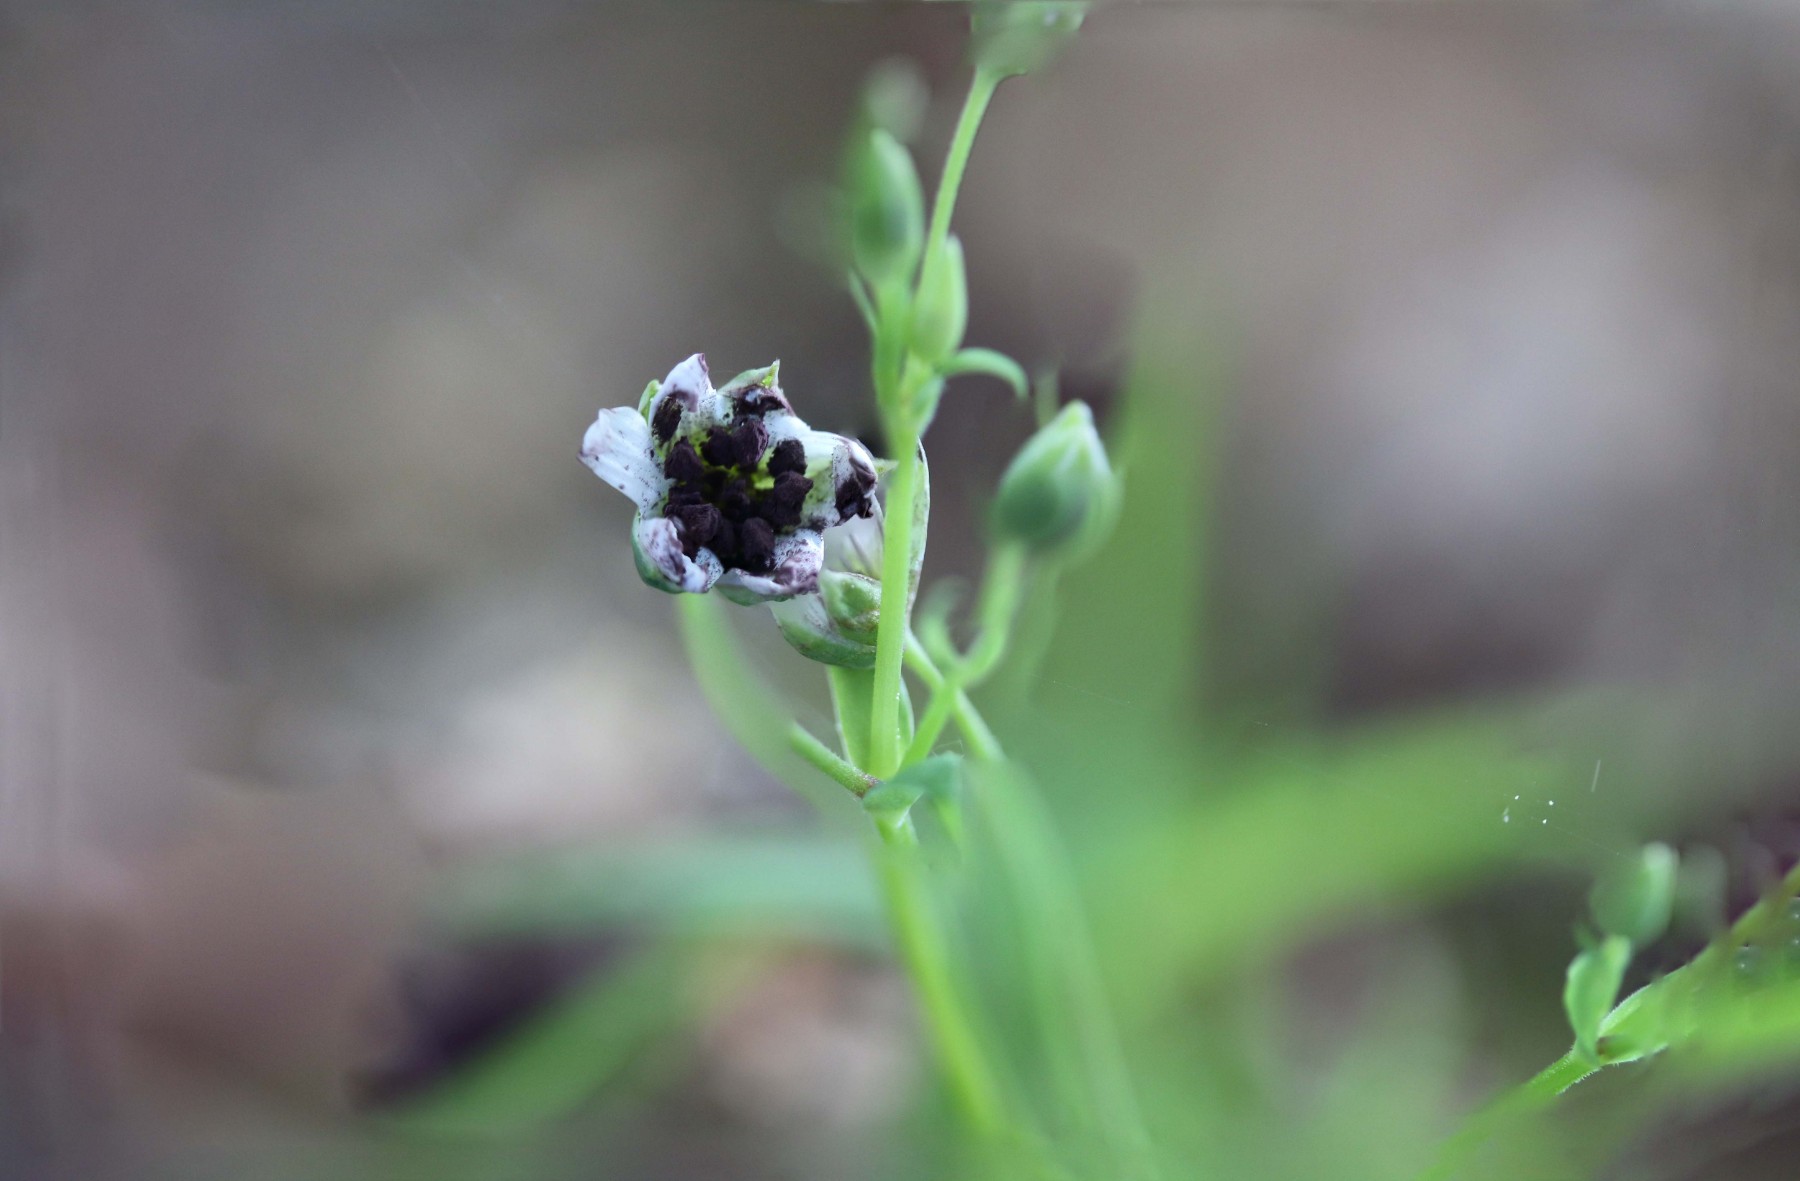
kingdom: Fungi
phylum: Basidiomycota
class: Microbotryomycetes
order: Microbotryales
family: Microbotryaceae
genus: Microbotryum
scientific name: Microbotryum stellariae
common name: fladstjerne-støvbladrust
